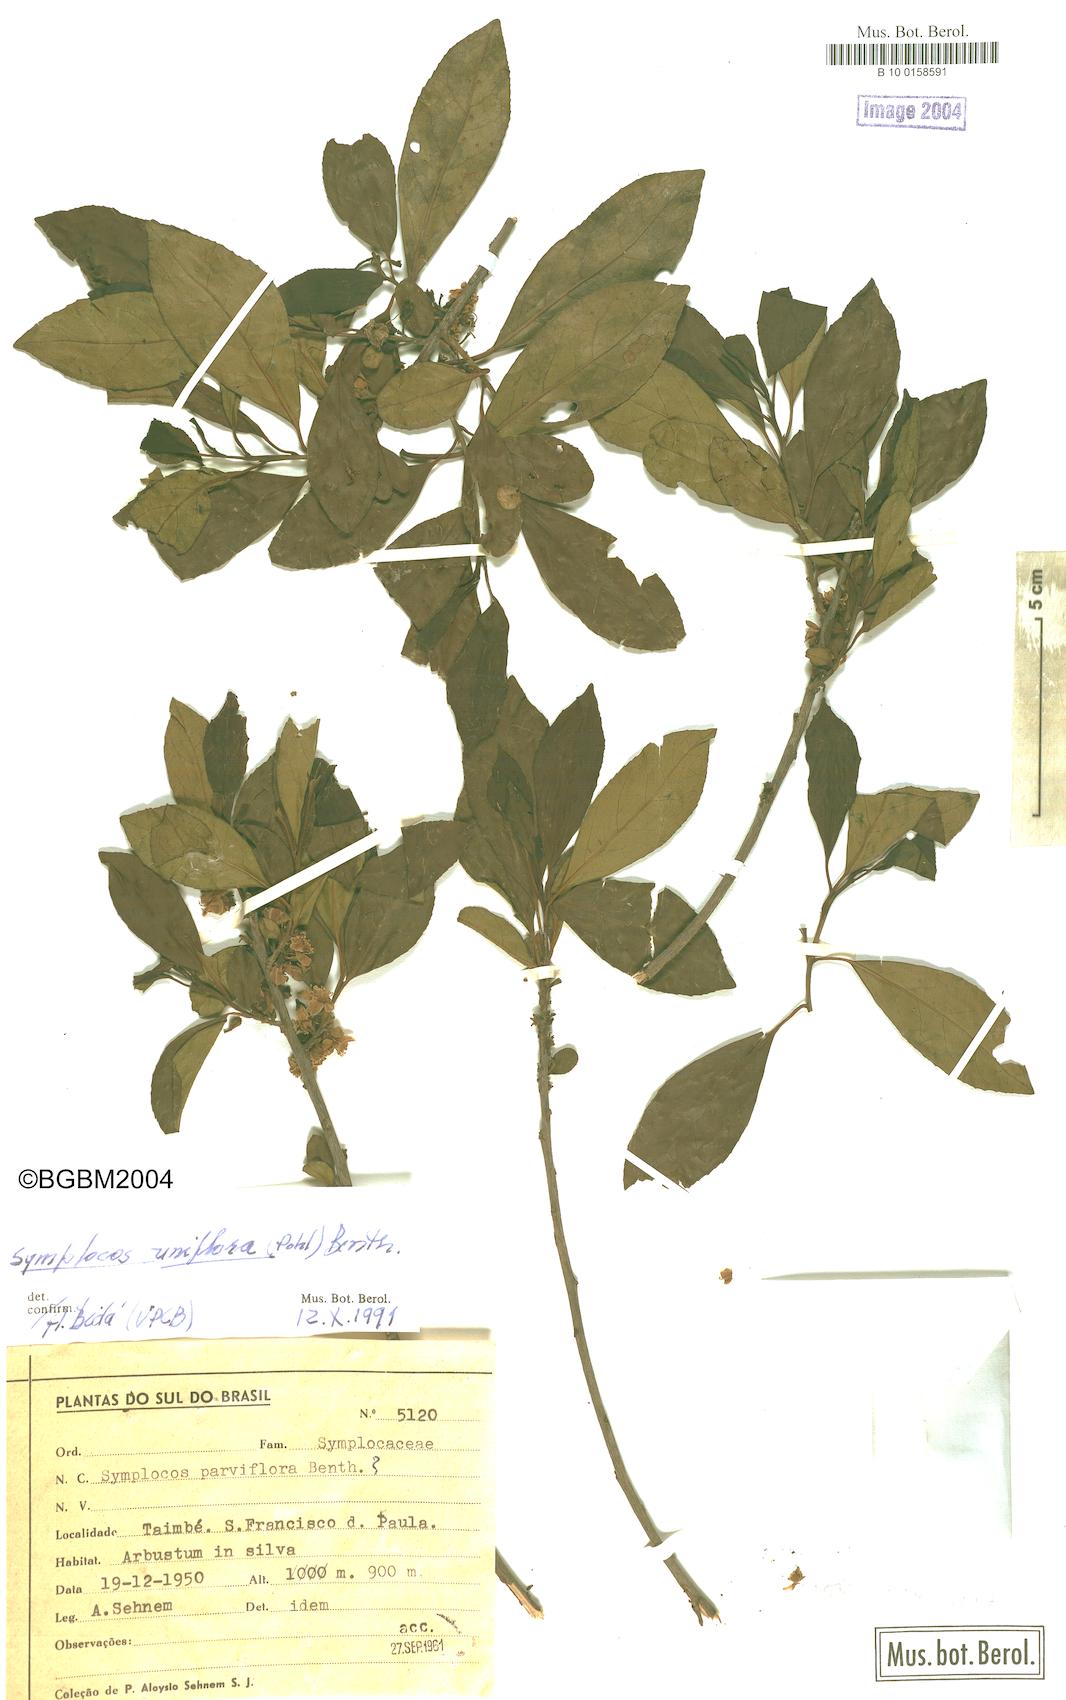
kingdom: Plantae
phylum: Tracheophyta
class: Magnoliopsida
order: Ericales
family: Symplocaceae
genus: Symplocos
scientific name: Symplocos uniflora
